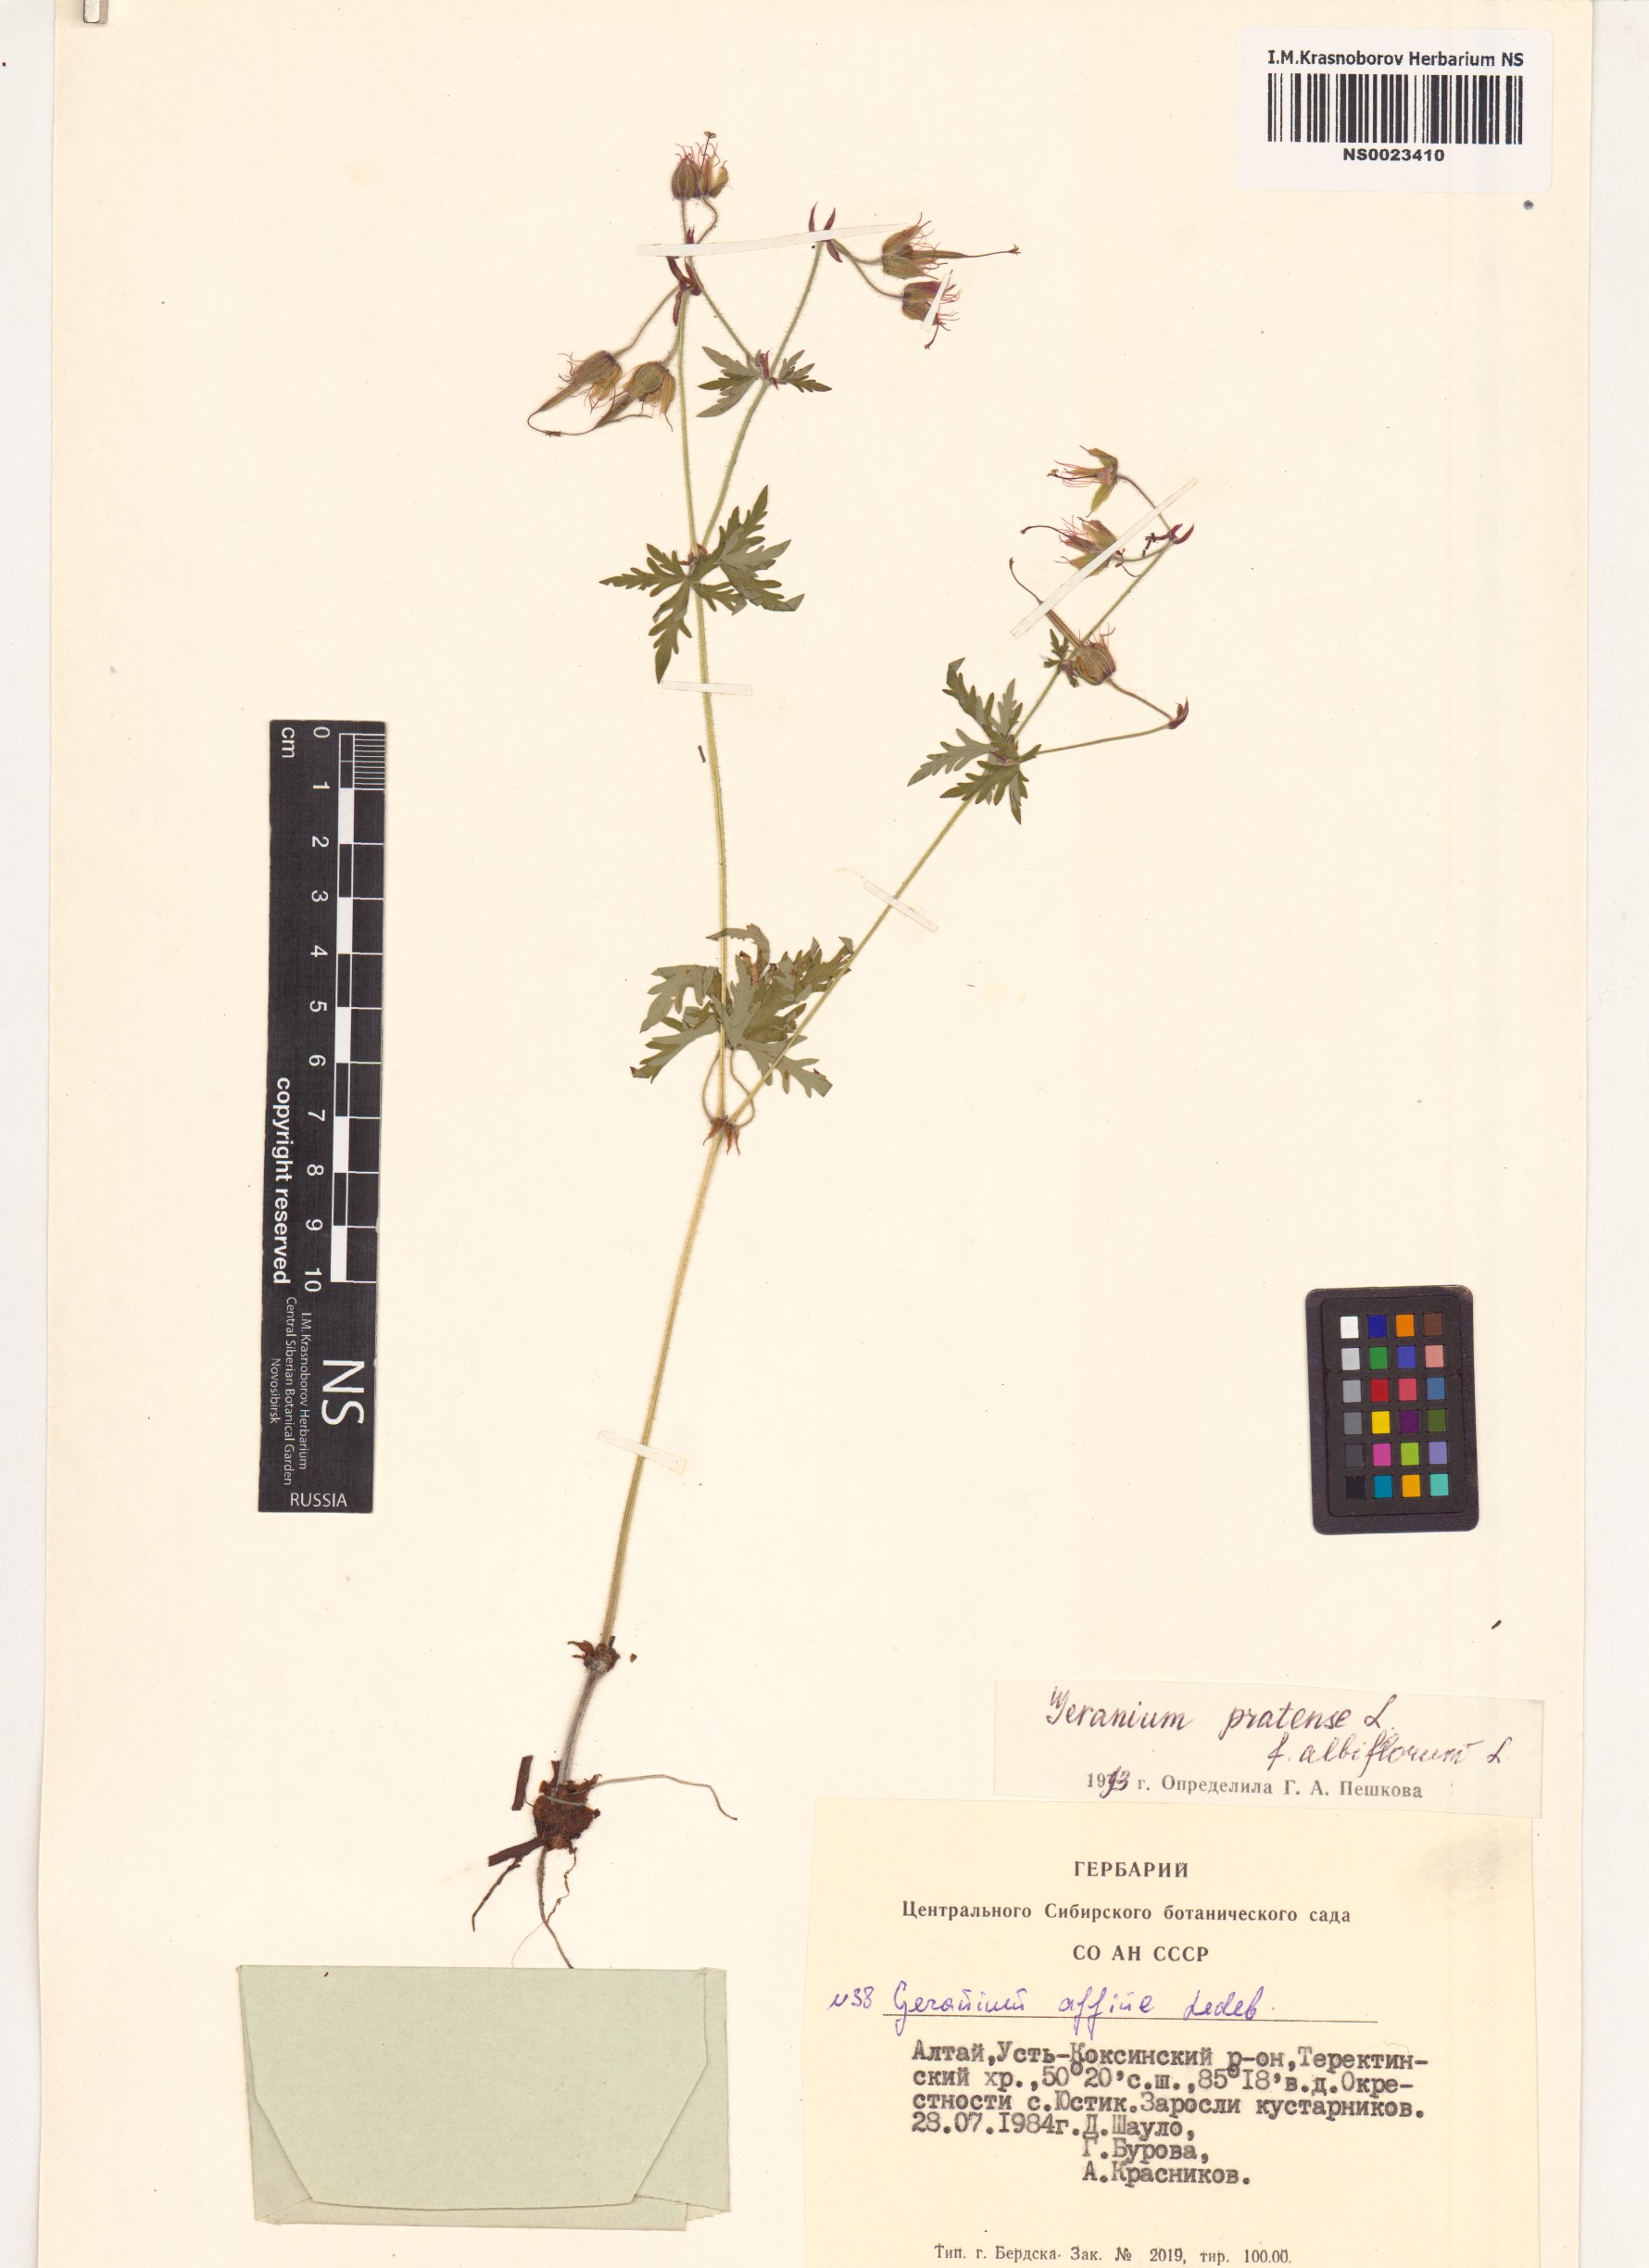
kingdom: Plantae
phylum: Tracheophyta
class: Magnoliopsida
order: Geraniales
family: Geraniaceae
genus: Geranium
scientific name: Geranium pratense
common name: Meadow crane's-bill
